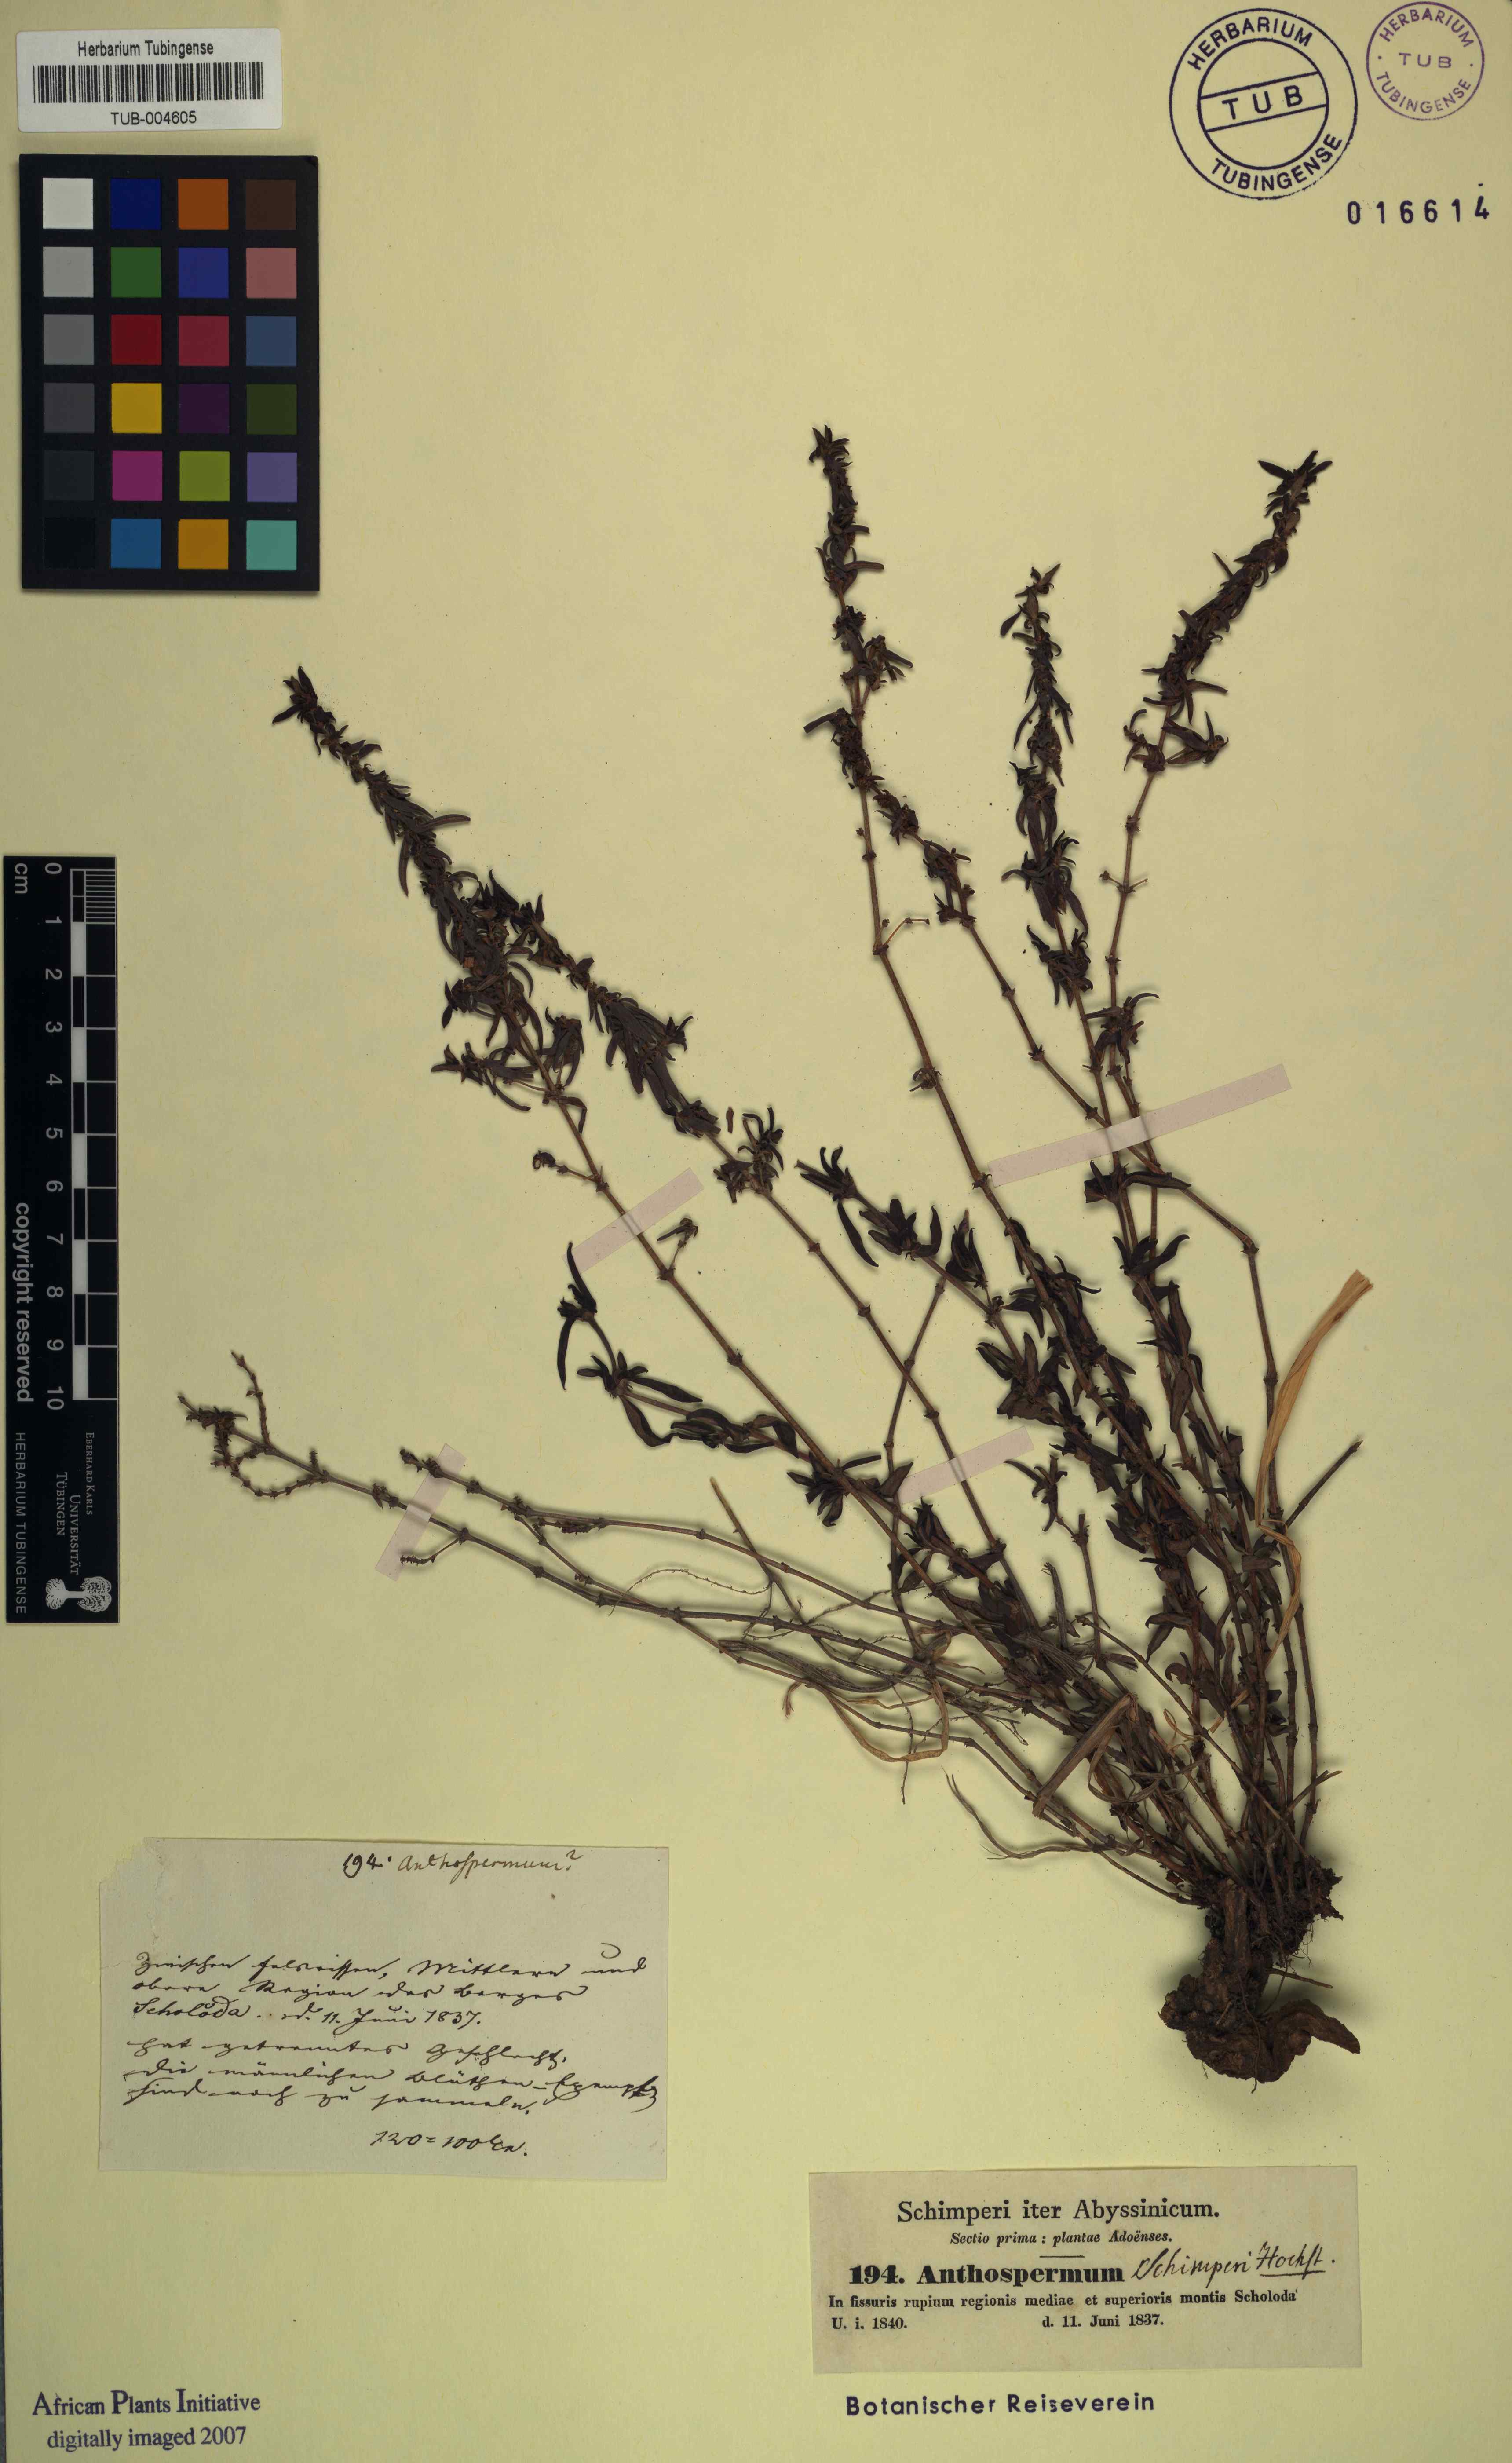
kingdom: Plantae
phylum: Tracheophyta
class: Magnoliopsida
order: Gentianales
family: Rubiaceae
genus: Anthospermum
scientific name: Anthospermum
